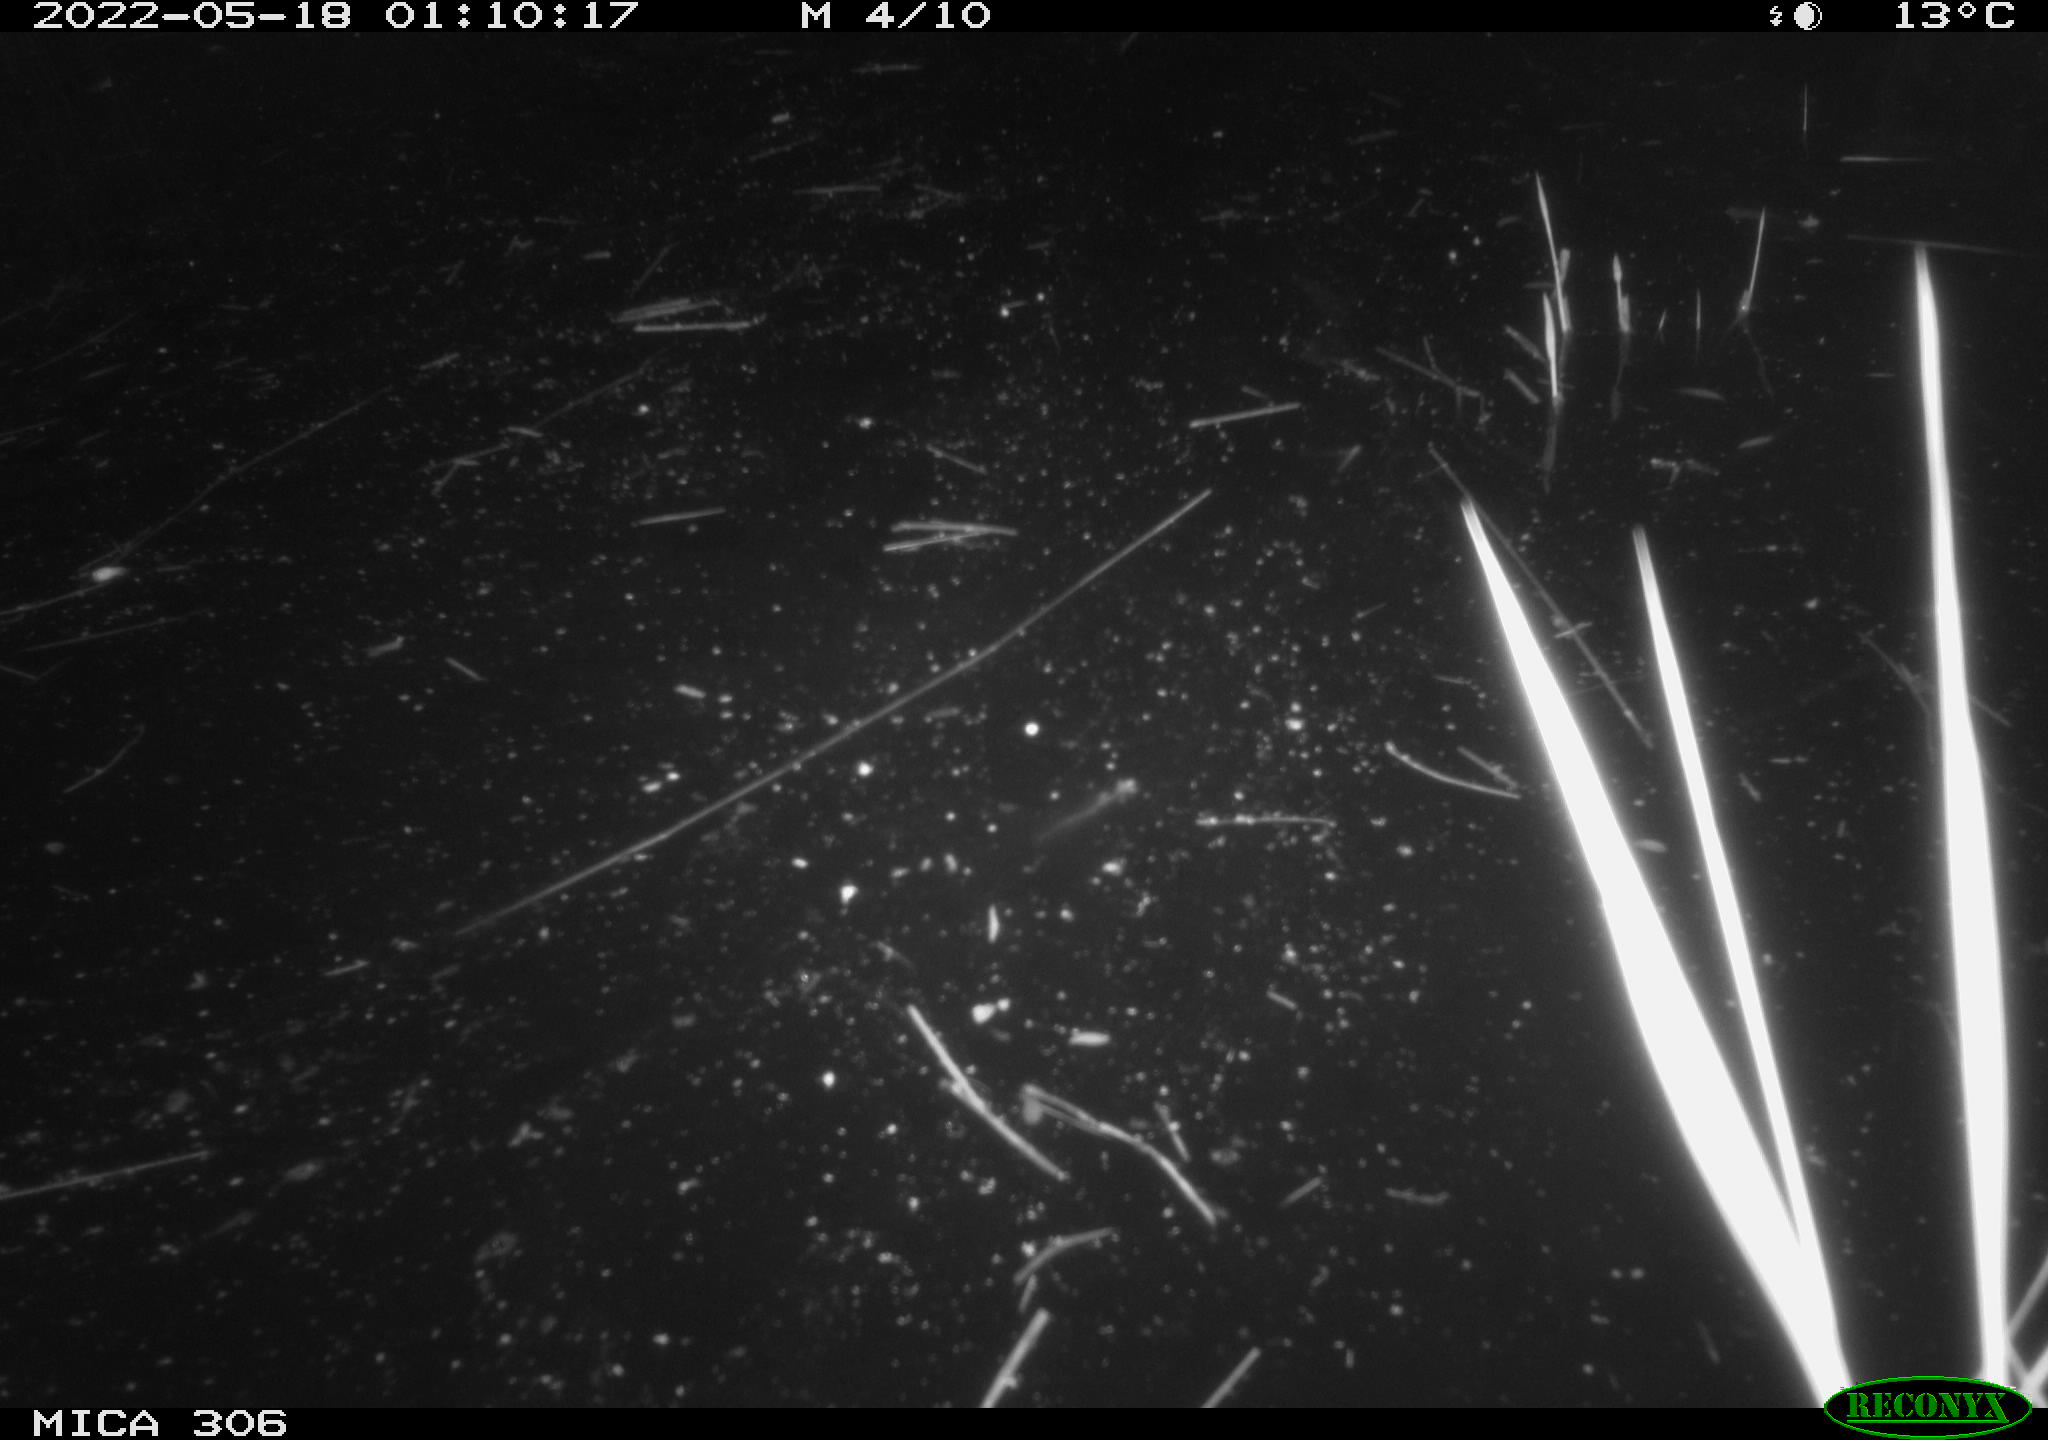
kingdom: Animalia
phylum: Chordata
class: Mammalia
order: Rodentia
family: Cricetidae
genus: Ondatra
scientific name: Ondatra zibethicus
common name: Muskrat
